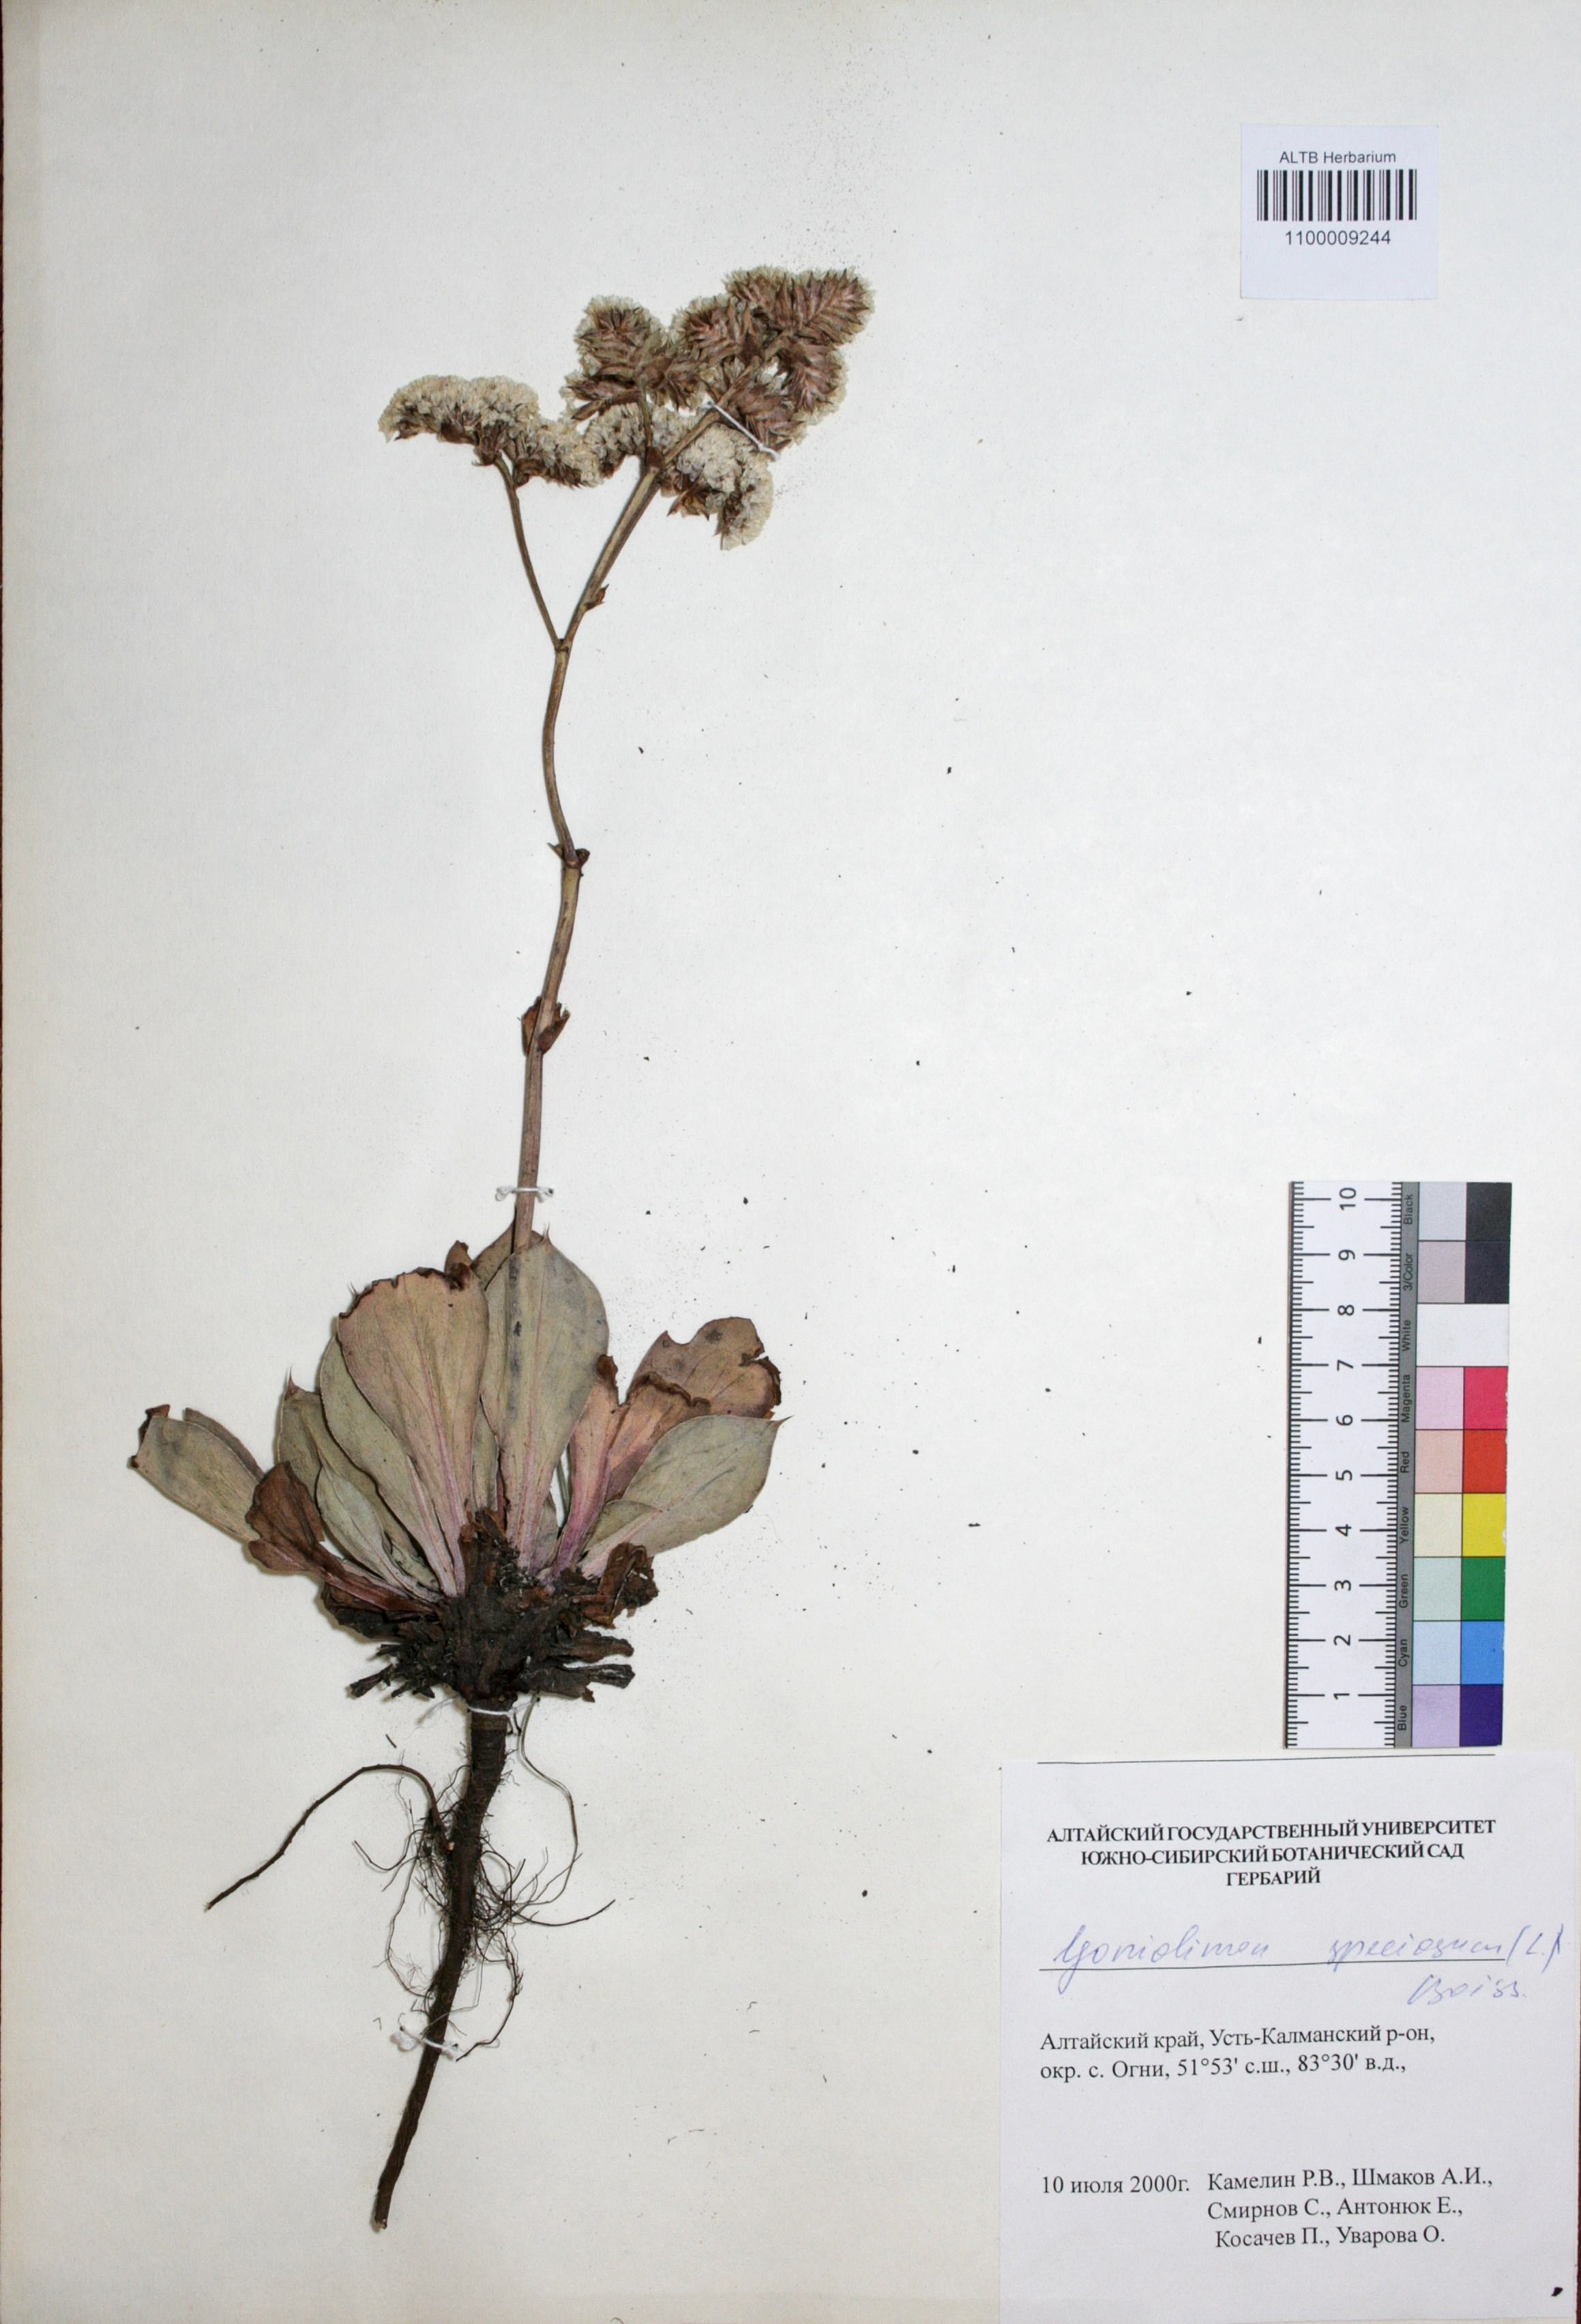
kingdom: Plantae
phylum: Tracheophyta
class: Magnoliopsida
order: Caryophyllales
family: Plumbaginaceae
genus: Goniolimon
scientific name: Goniolimon speciosum
